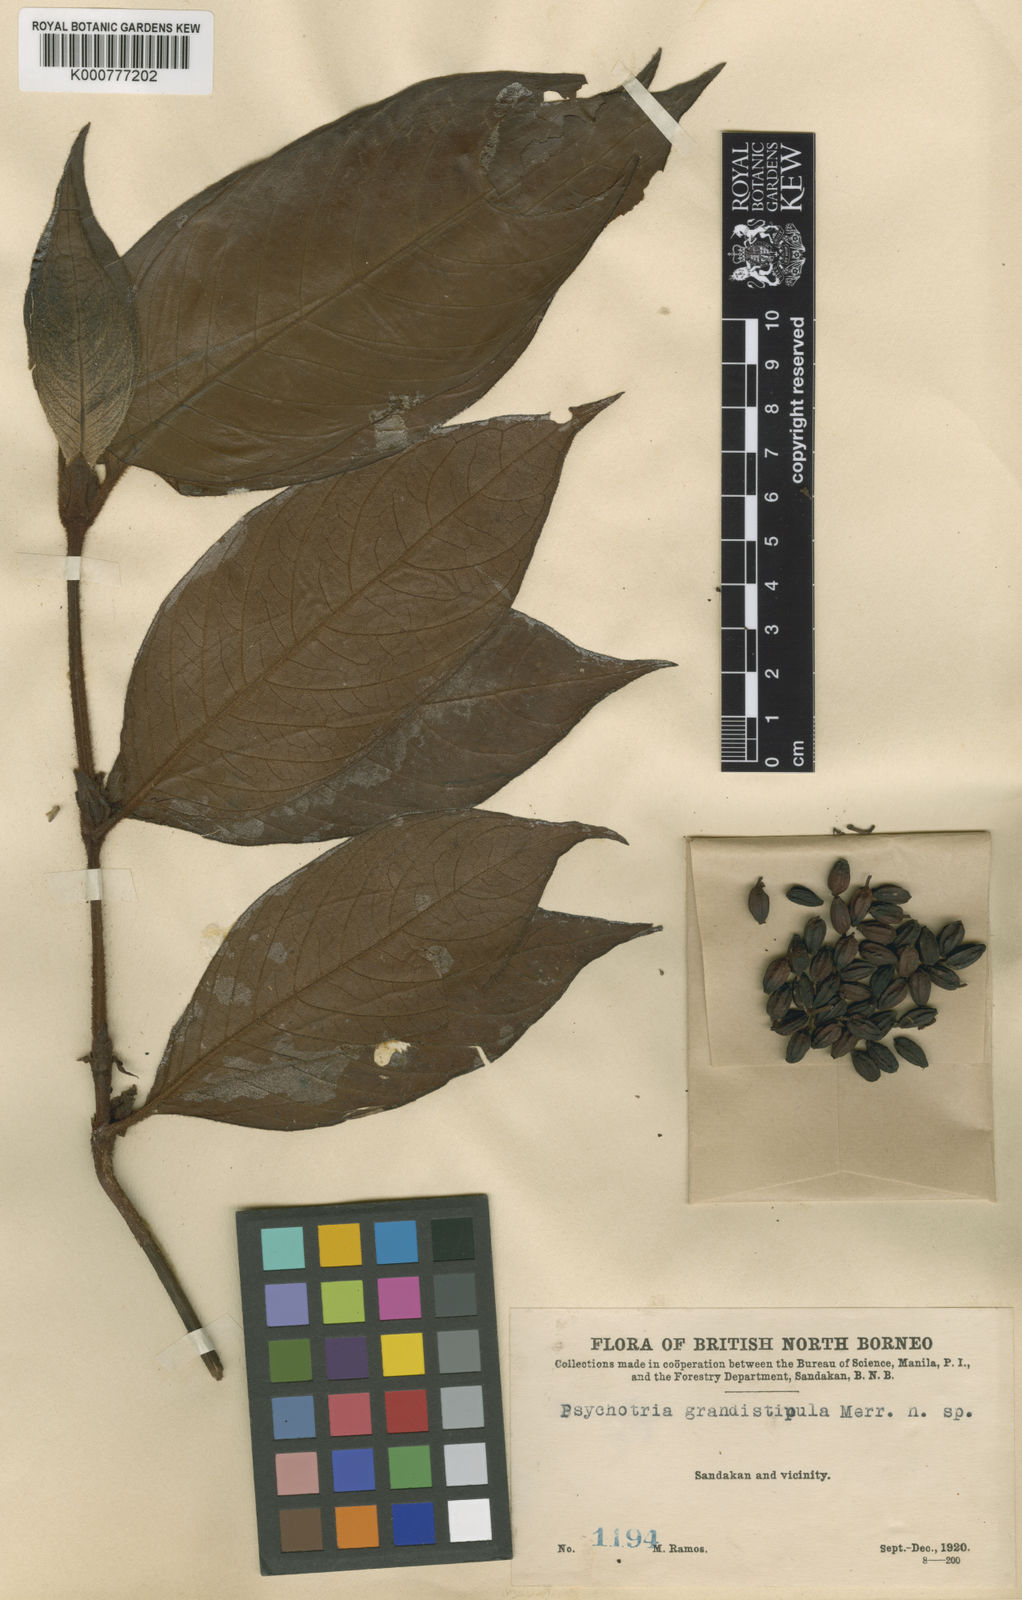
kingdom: Plantae
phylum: Tracheophyta
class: Magnoliopsida
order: Gentianales
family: Rubiaceae
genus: Psychotria
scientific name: Psychotria grandistipula
